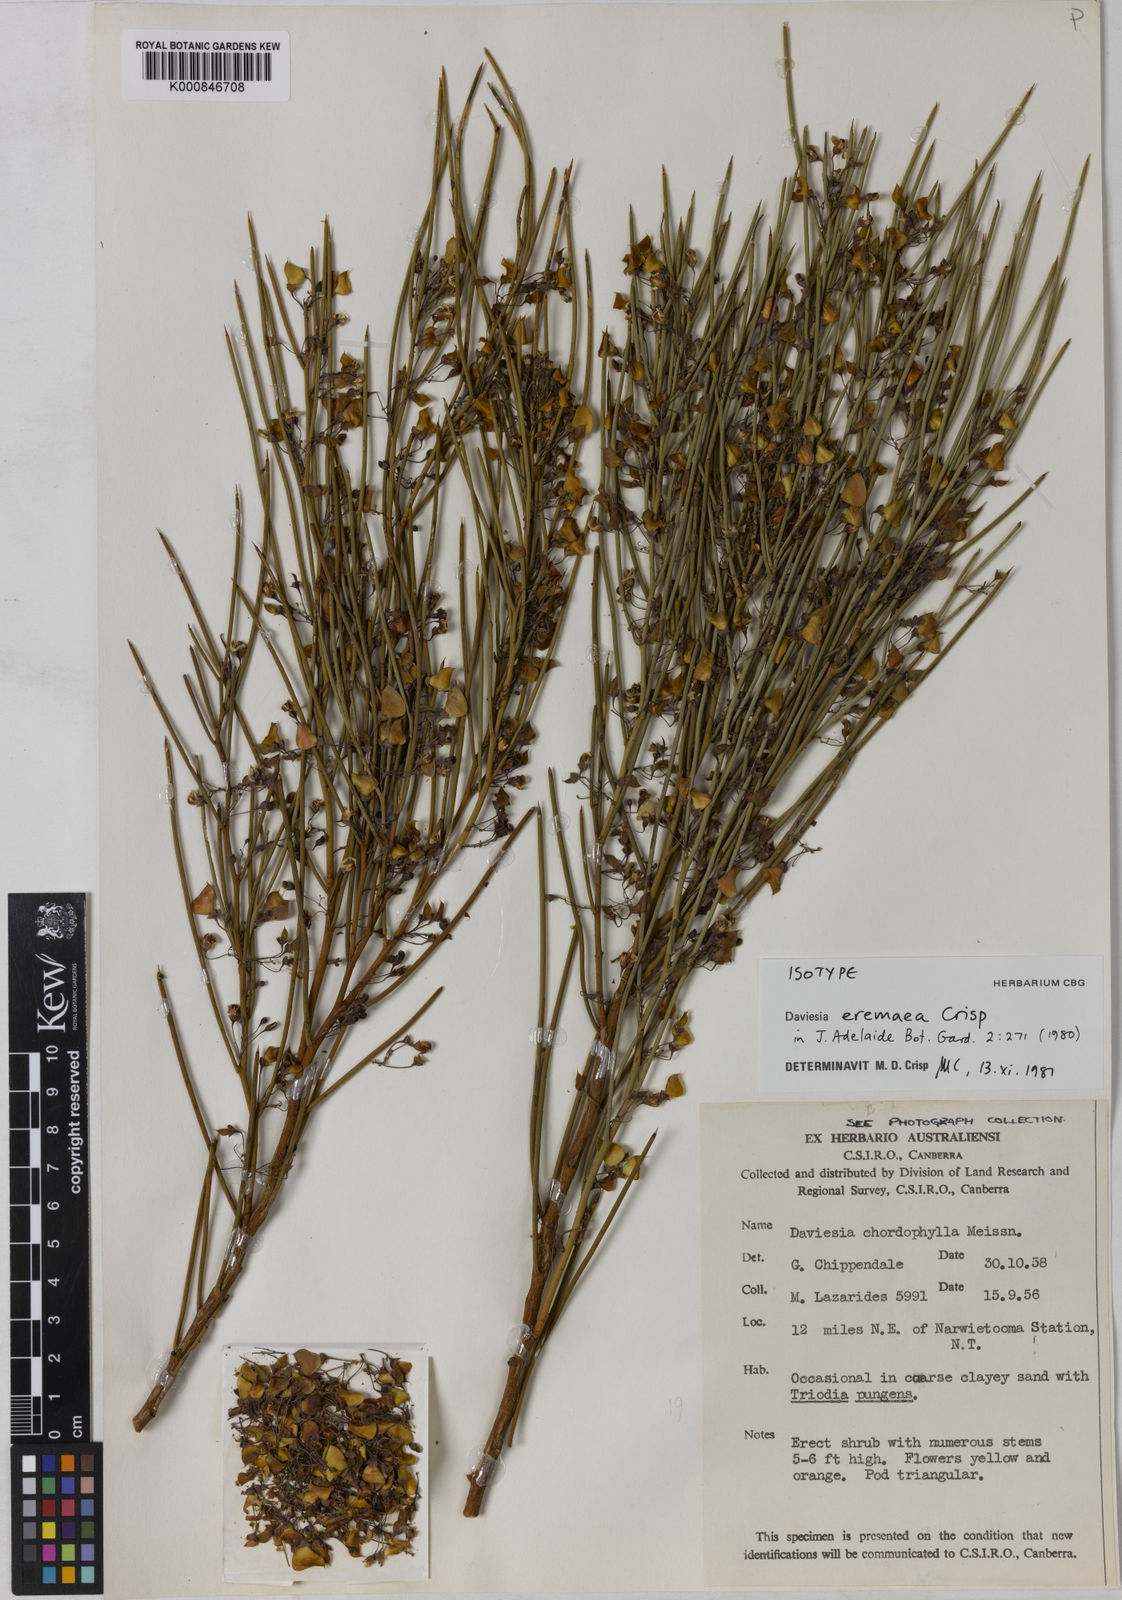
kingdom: Plantae
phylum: Tracheophyta
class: Magnoliopsida
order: Fabales
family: Fabaceae
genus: Daviesia
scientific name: Daviesia eremaea
